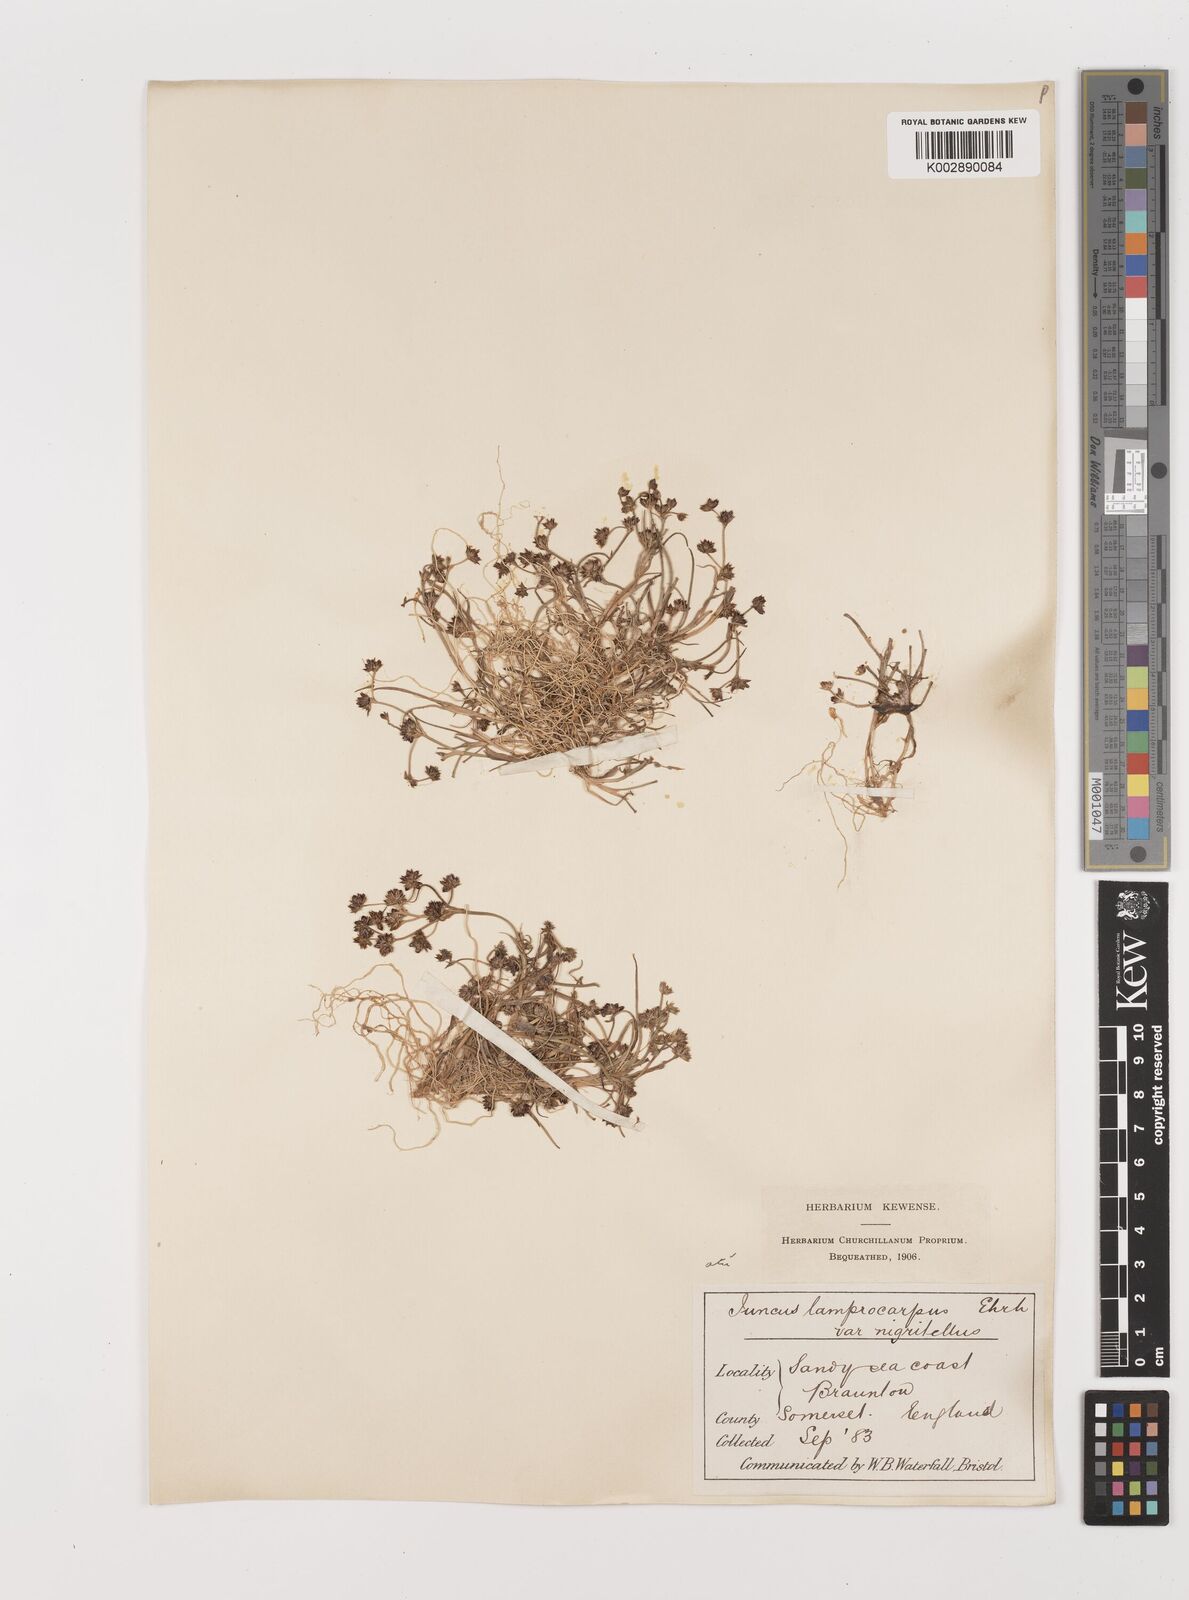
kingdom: Plantae
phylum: Tracheophyta
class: Liliopsida
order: Poales
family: Juncaceae
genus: Juncus
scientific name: Juncus articulatus
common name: Jointed rush
